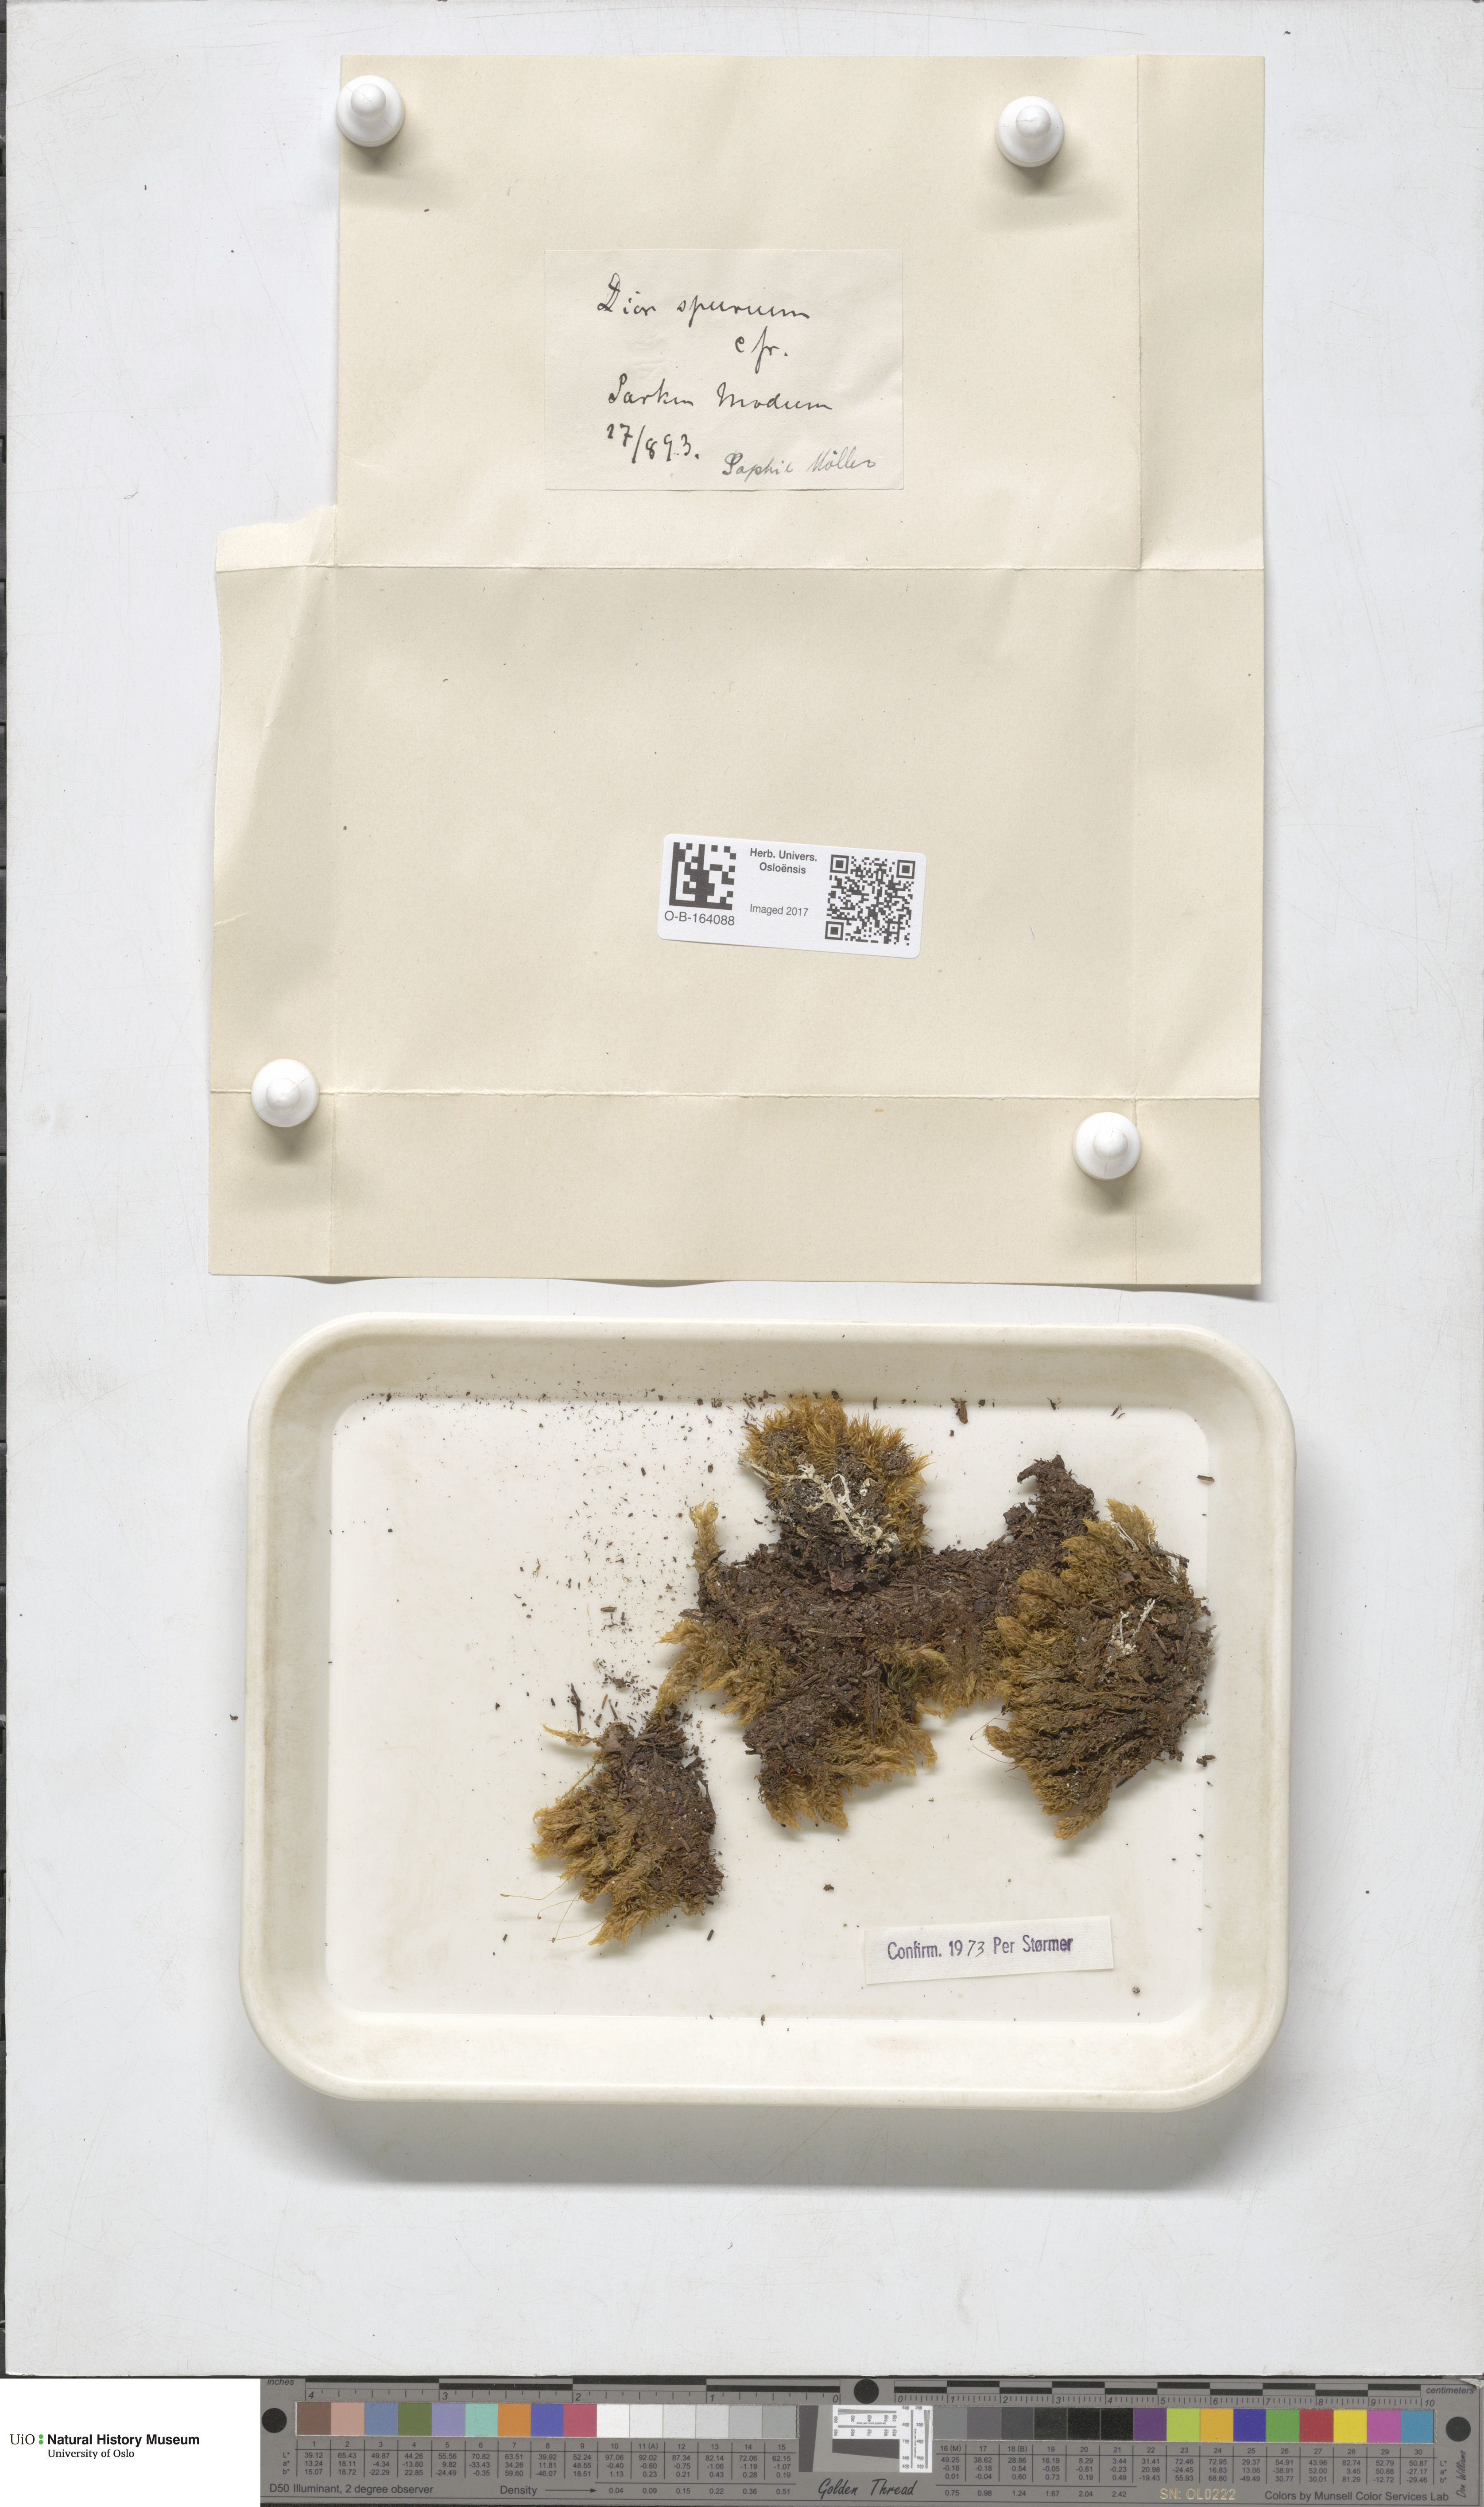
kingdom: Plantae
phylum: Bryophyta
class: Bryopsida
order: Dicranales
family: Dicranaceae
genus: Dicranum
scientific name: Dicranum spurium
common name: Spurred broom moss
